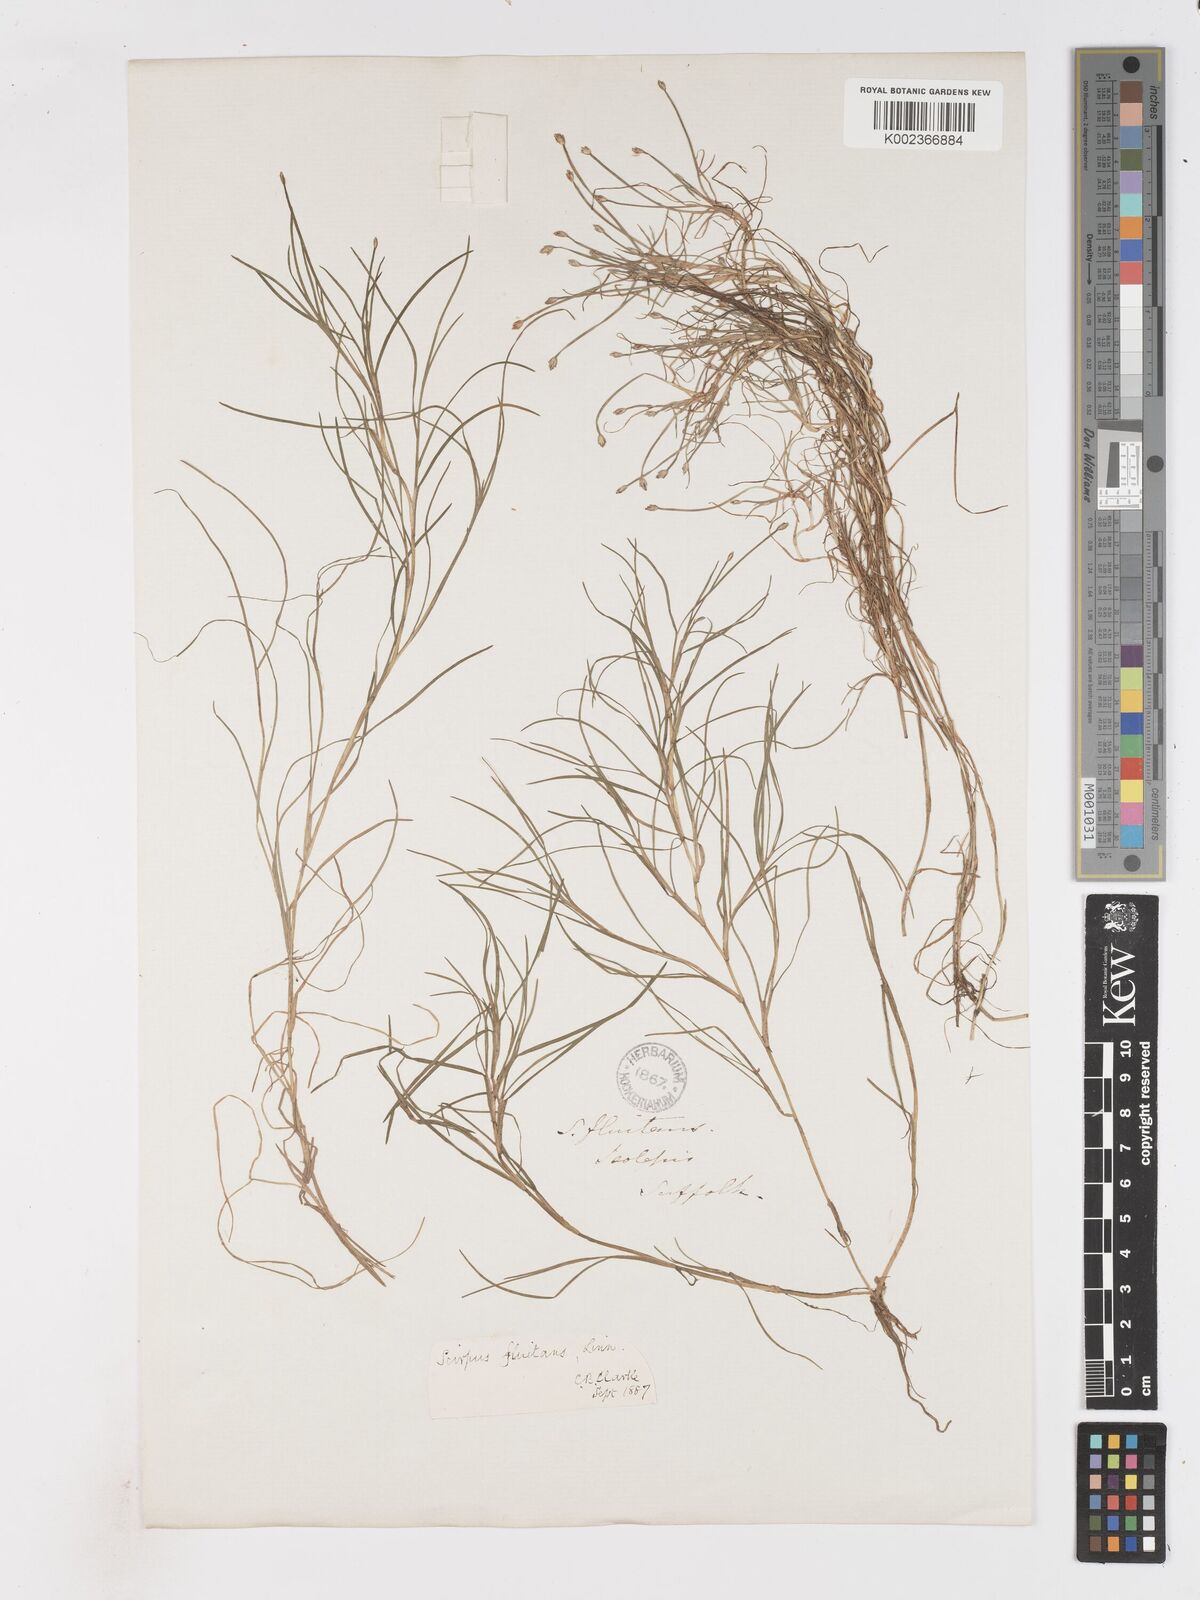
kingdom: Plantae
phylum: Tracheophyta
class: Liliopsida
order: Poales
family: Cyperaceae
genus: Isolepis
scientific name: Isolepis fluitans
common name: Floating club-rush
